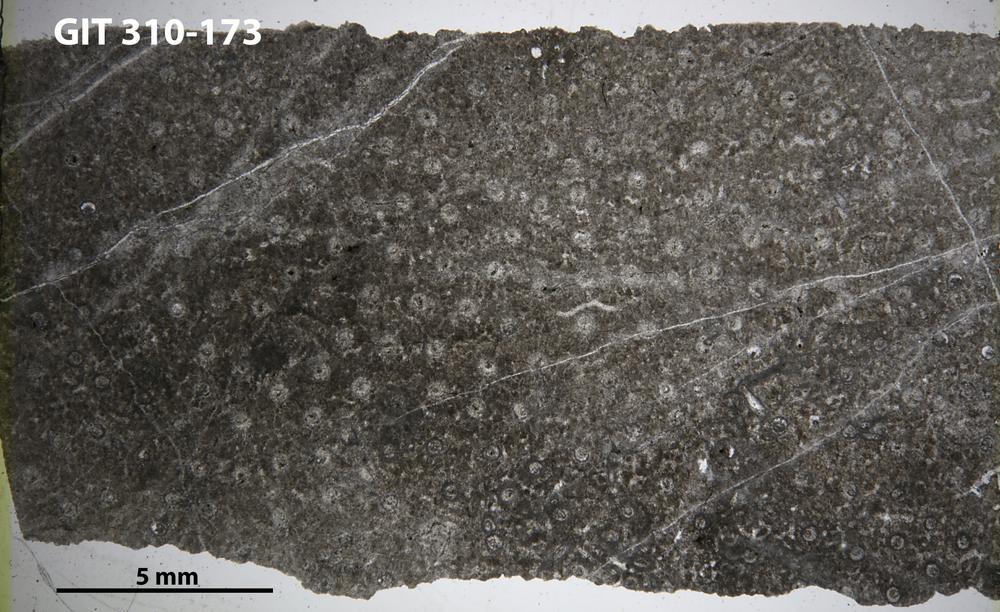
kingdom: Animalia
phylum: Porifera
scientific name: Porifera
